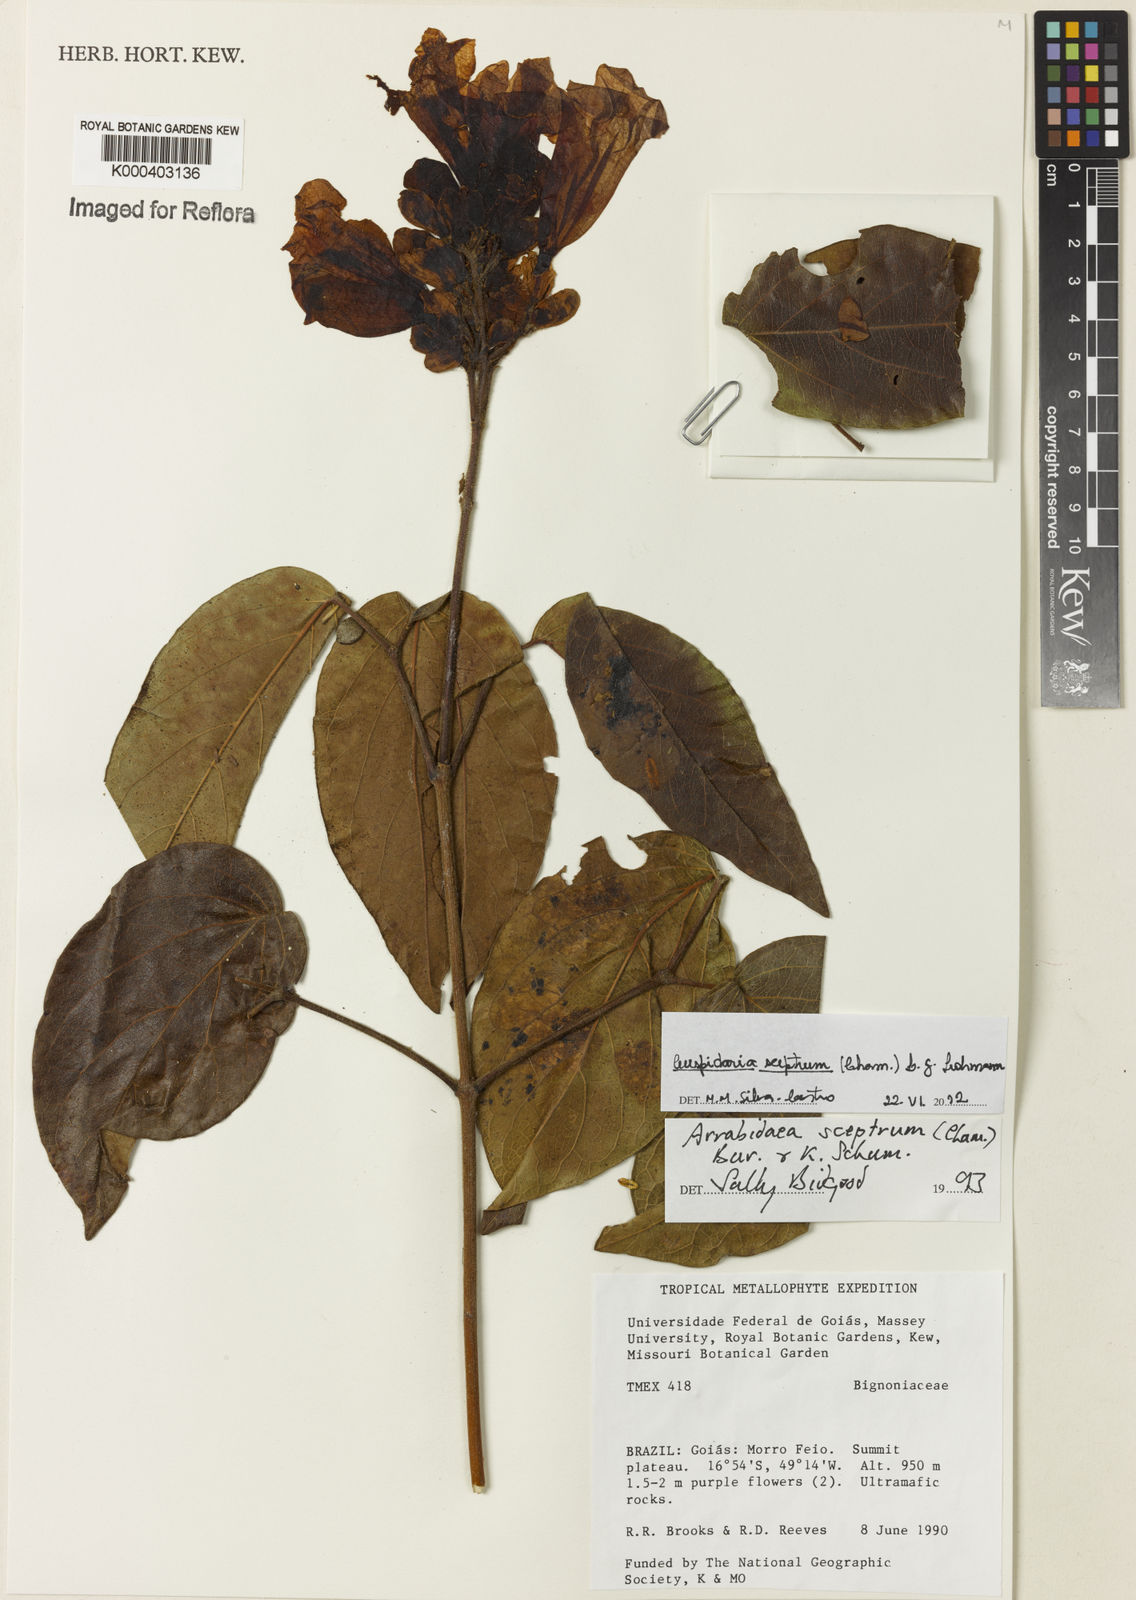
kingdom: Plantae
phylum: Tracheophyta
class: Magnoliopsida
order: Lamiales
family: Bignoniaceae
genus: Cuspidaria
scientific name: Cuspidaria sceptrum
